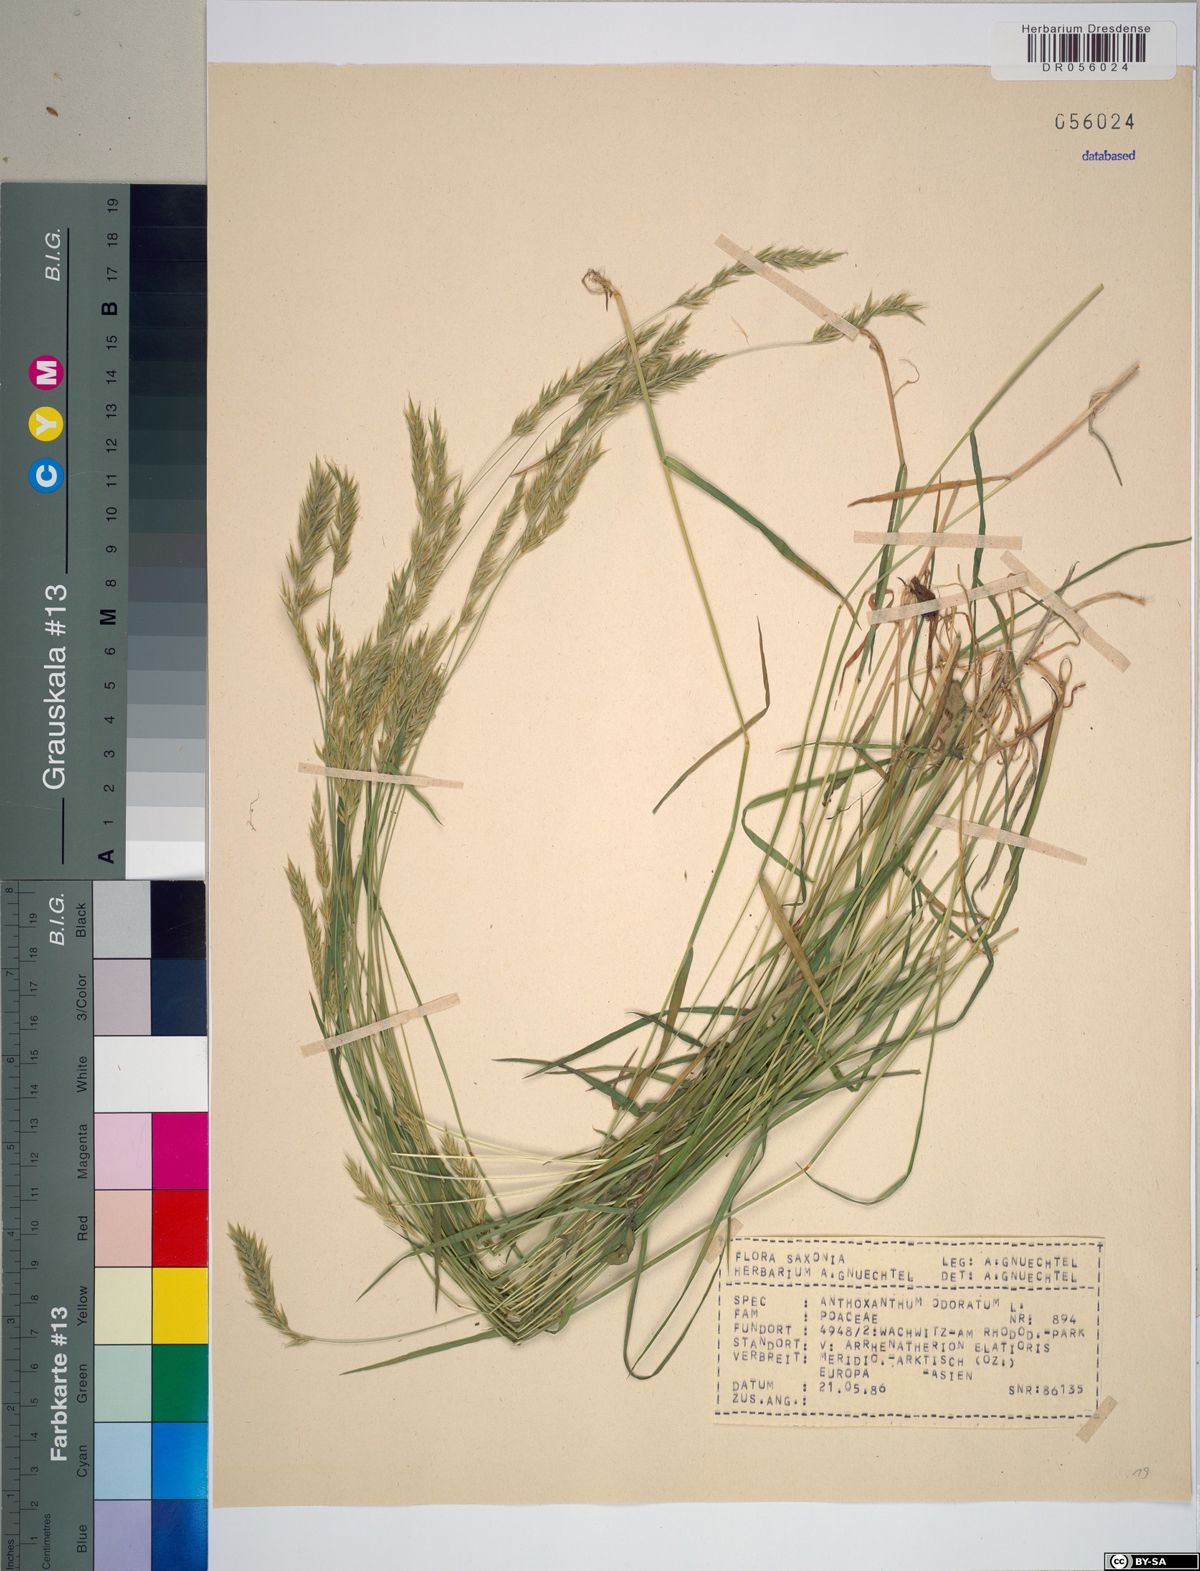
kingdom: Plantae
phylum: Tracheophyta
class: Liliopsida
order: Poales
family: Poaceae
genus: Anthoxanthum
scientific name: Anthoxanthum odoratum
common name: Sweet vernalgrass
